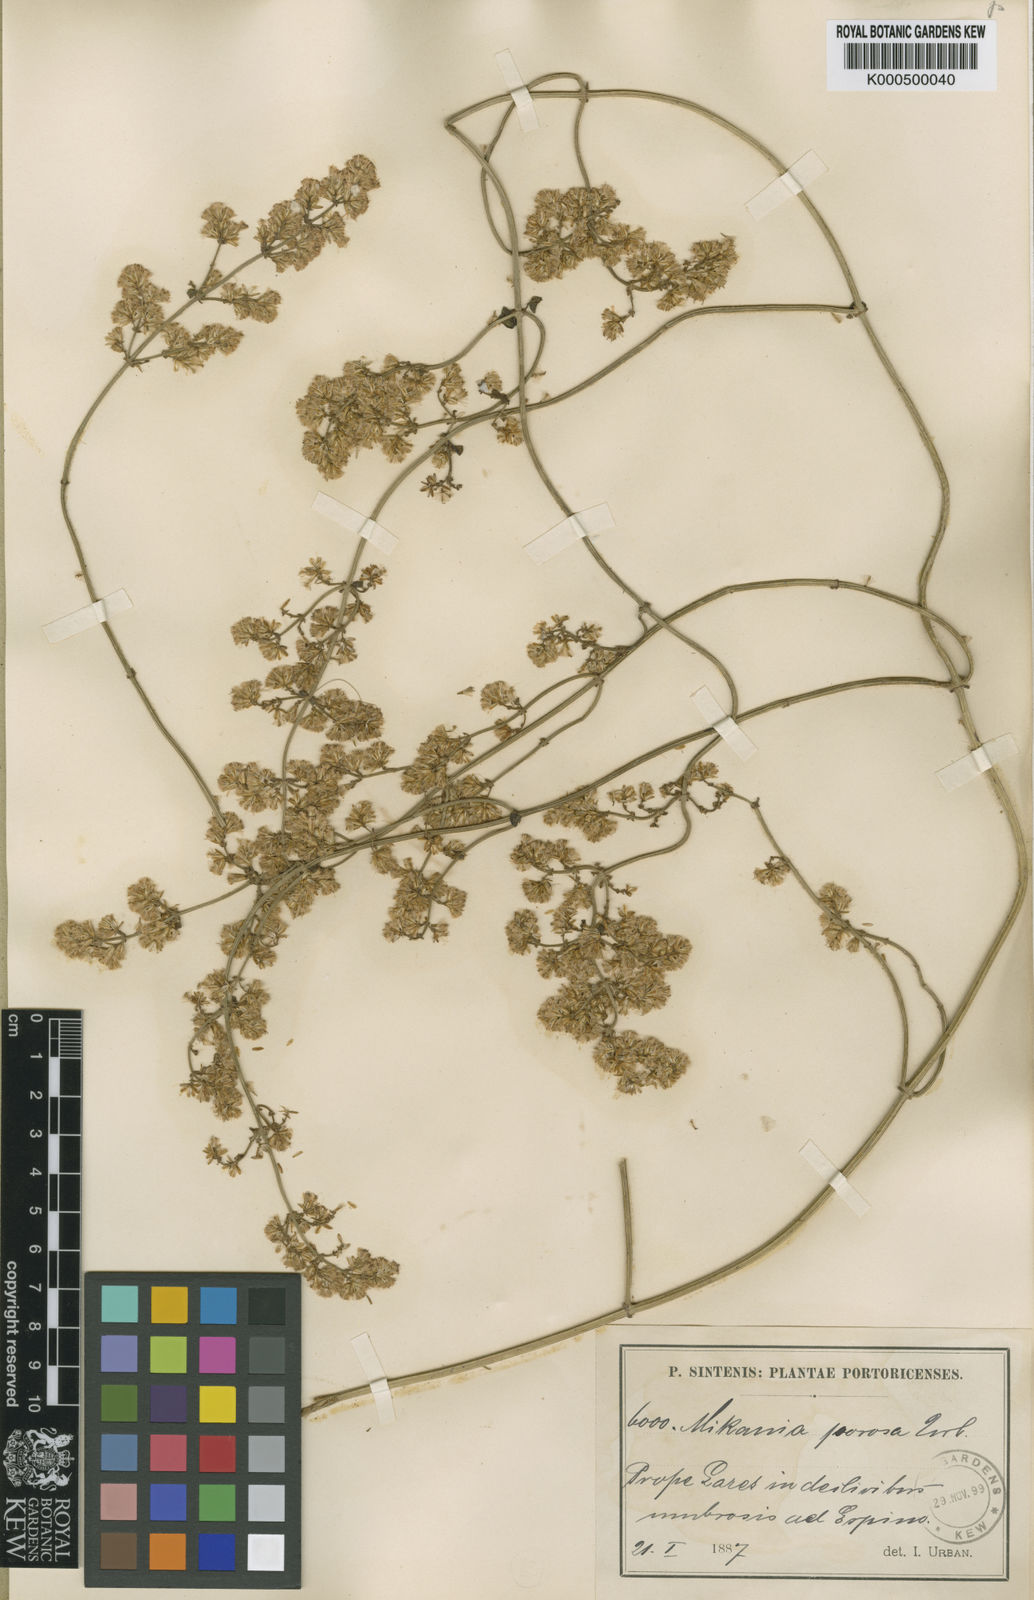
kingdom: Plantae
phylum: Tracheophyta
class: Magnoliopsida
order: Asterales
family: Asteraceae
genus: Mikania
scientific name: Mikania porosa
